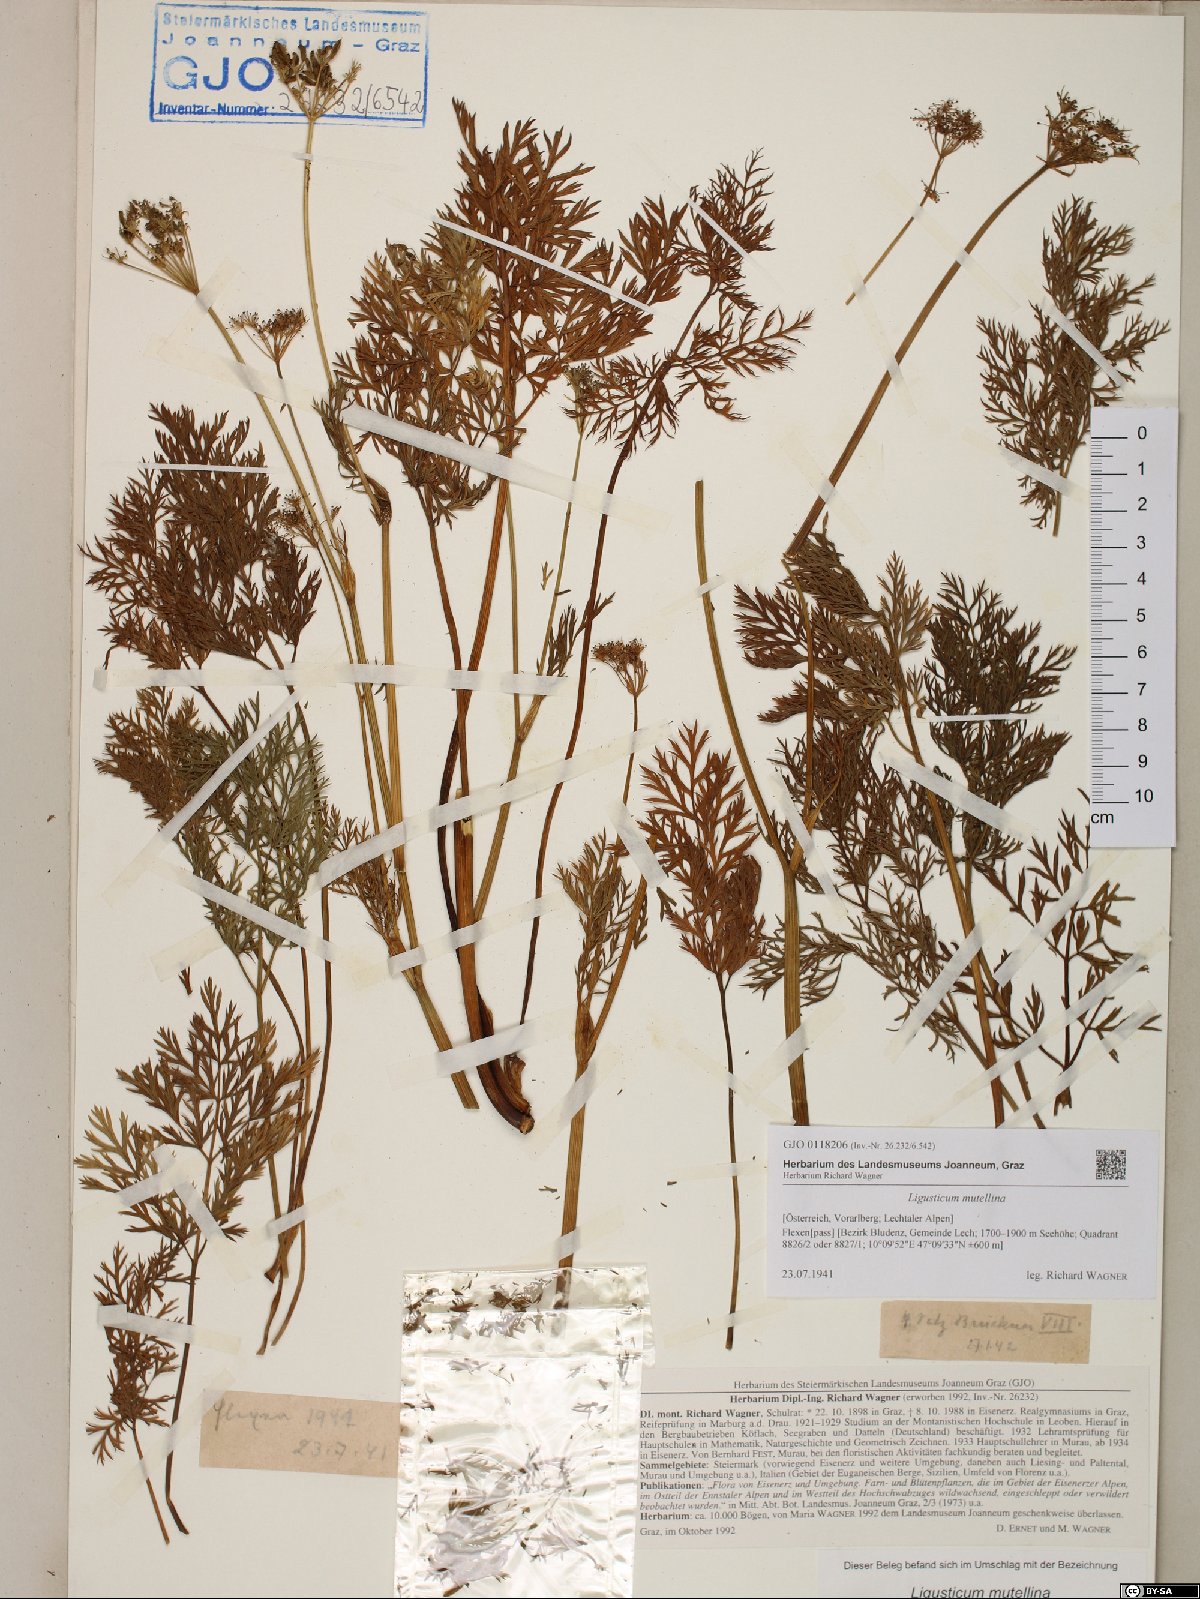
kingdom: Plantae
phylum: Tracheophyta
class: Magnoliopsida
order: Apiales
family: Apiaceae
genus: Mutellina
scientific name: Mutellina adonidifolia
